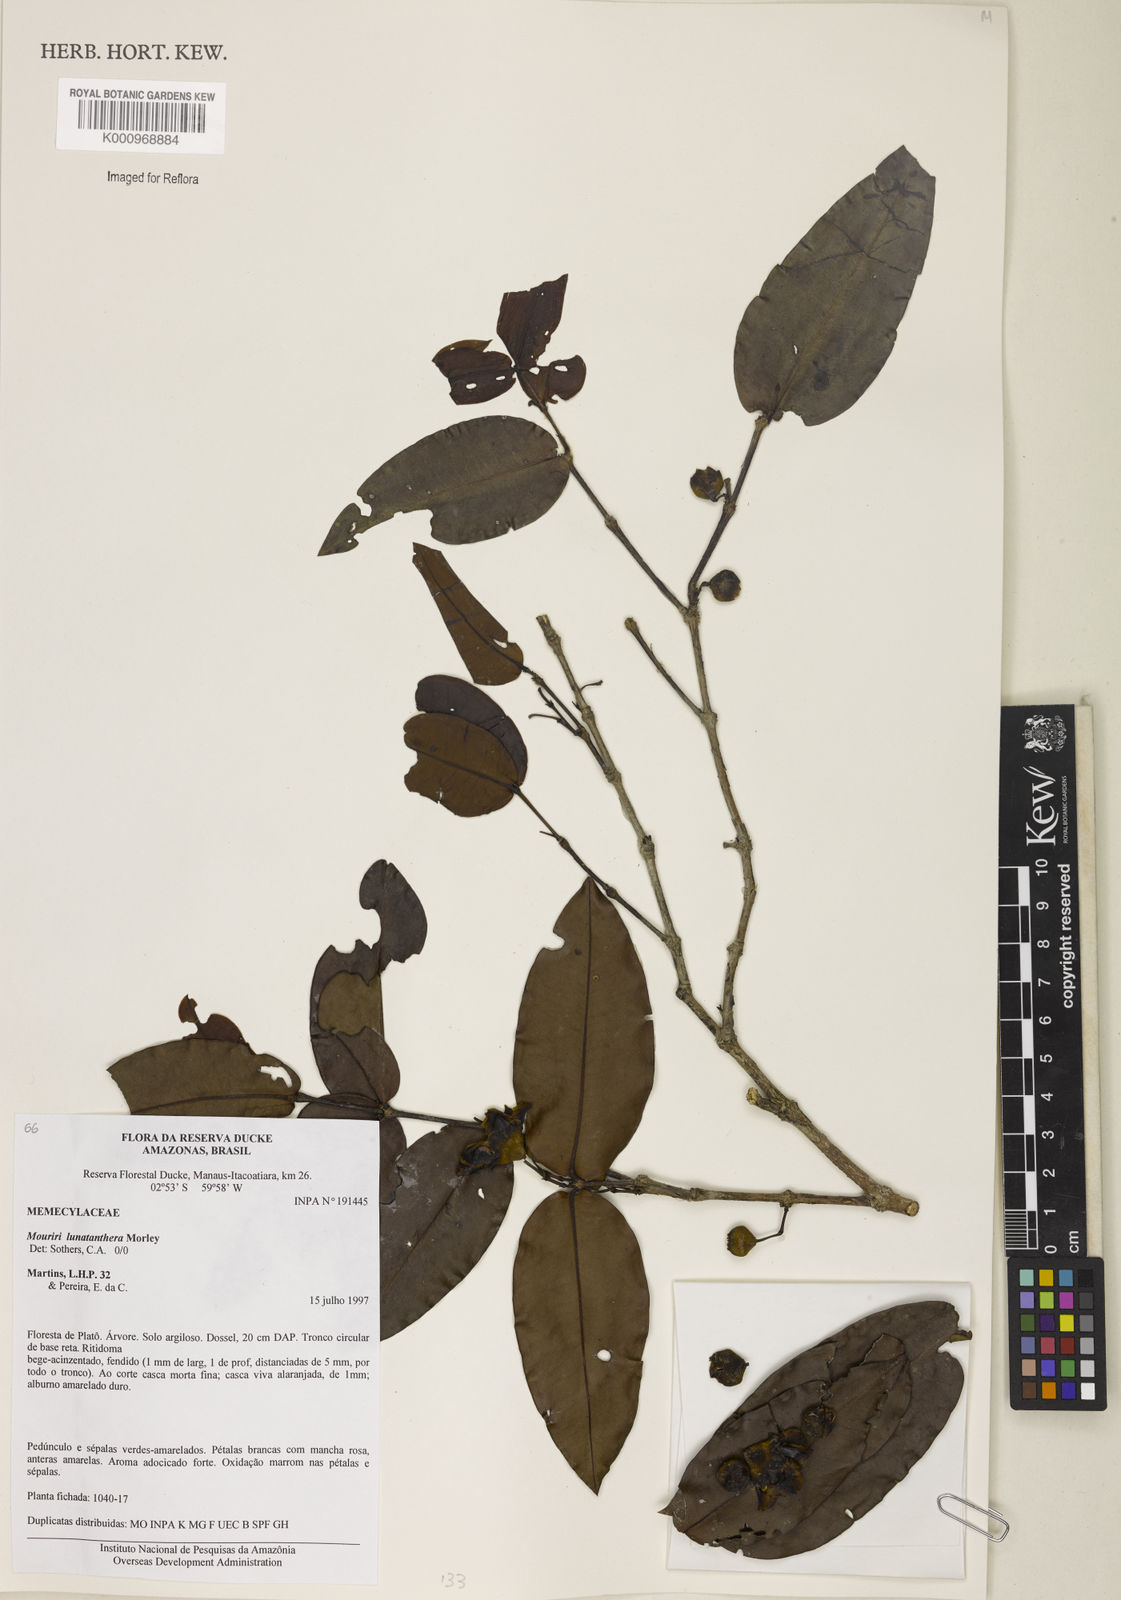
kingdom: Plantae
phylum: Tracheophyta
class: Magnoliopsida
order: Myrtales
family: Melastomataceae
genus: Mouriri
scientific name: Mouriri
